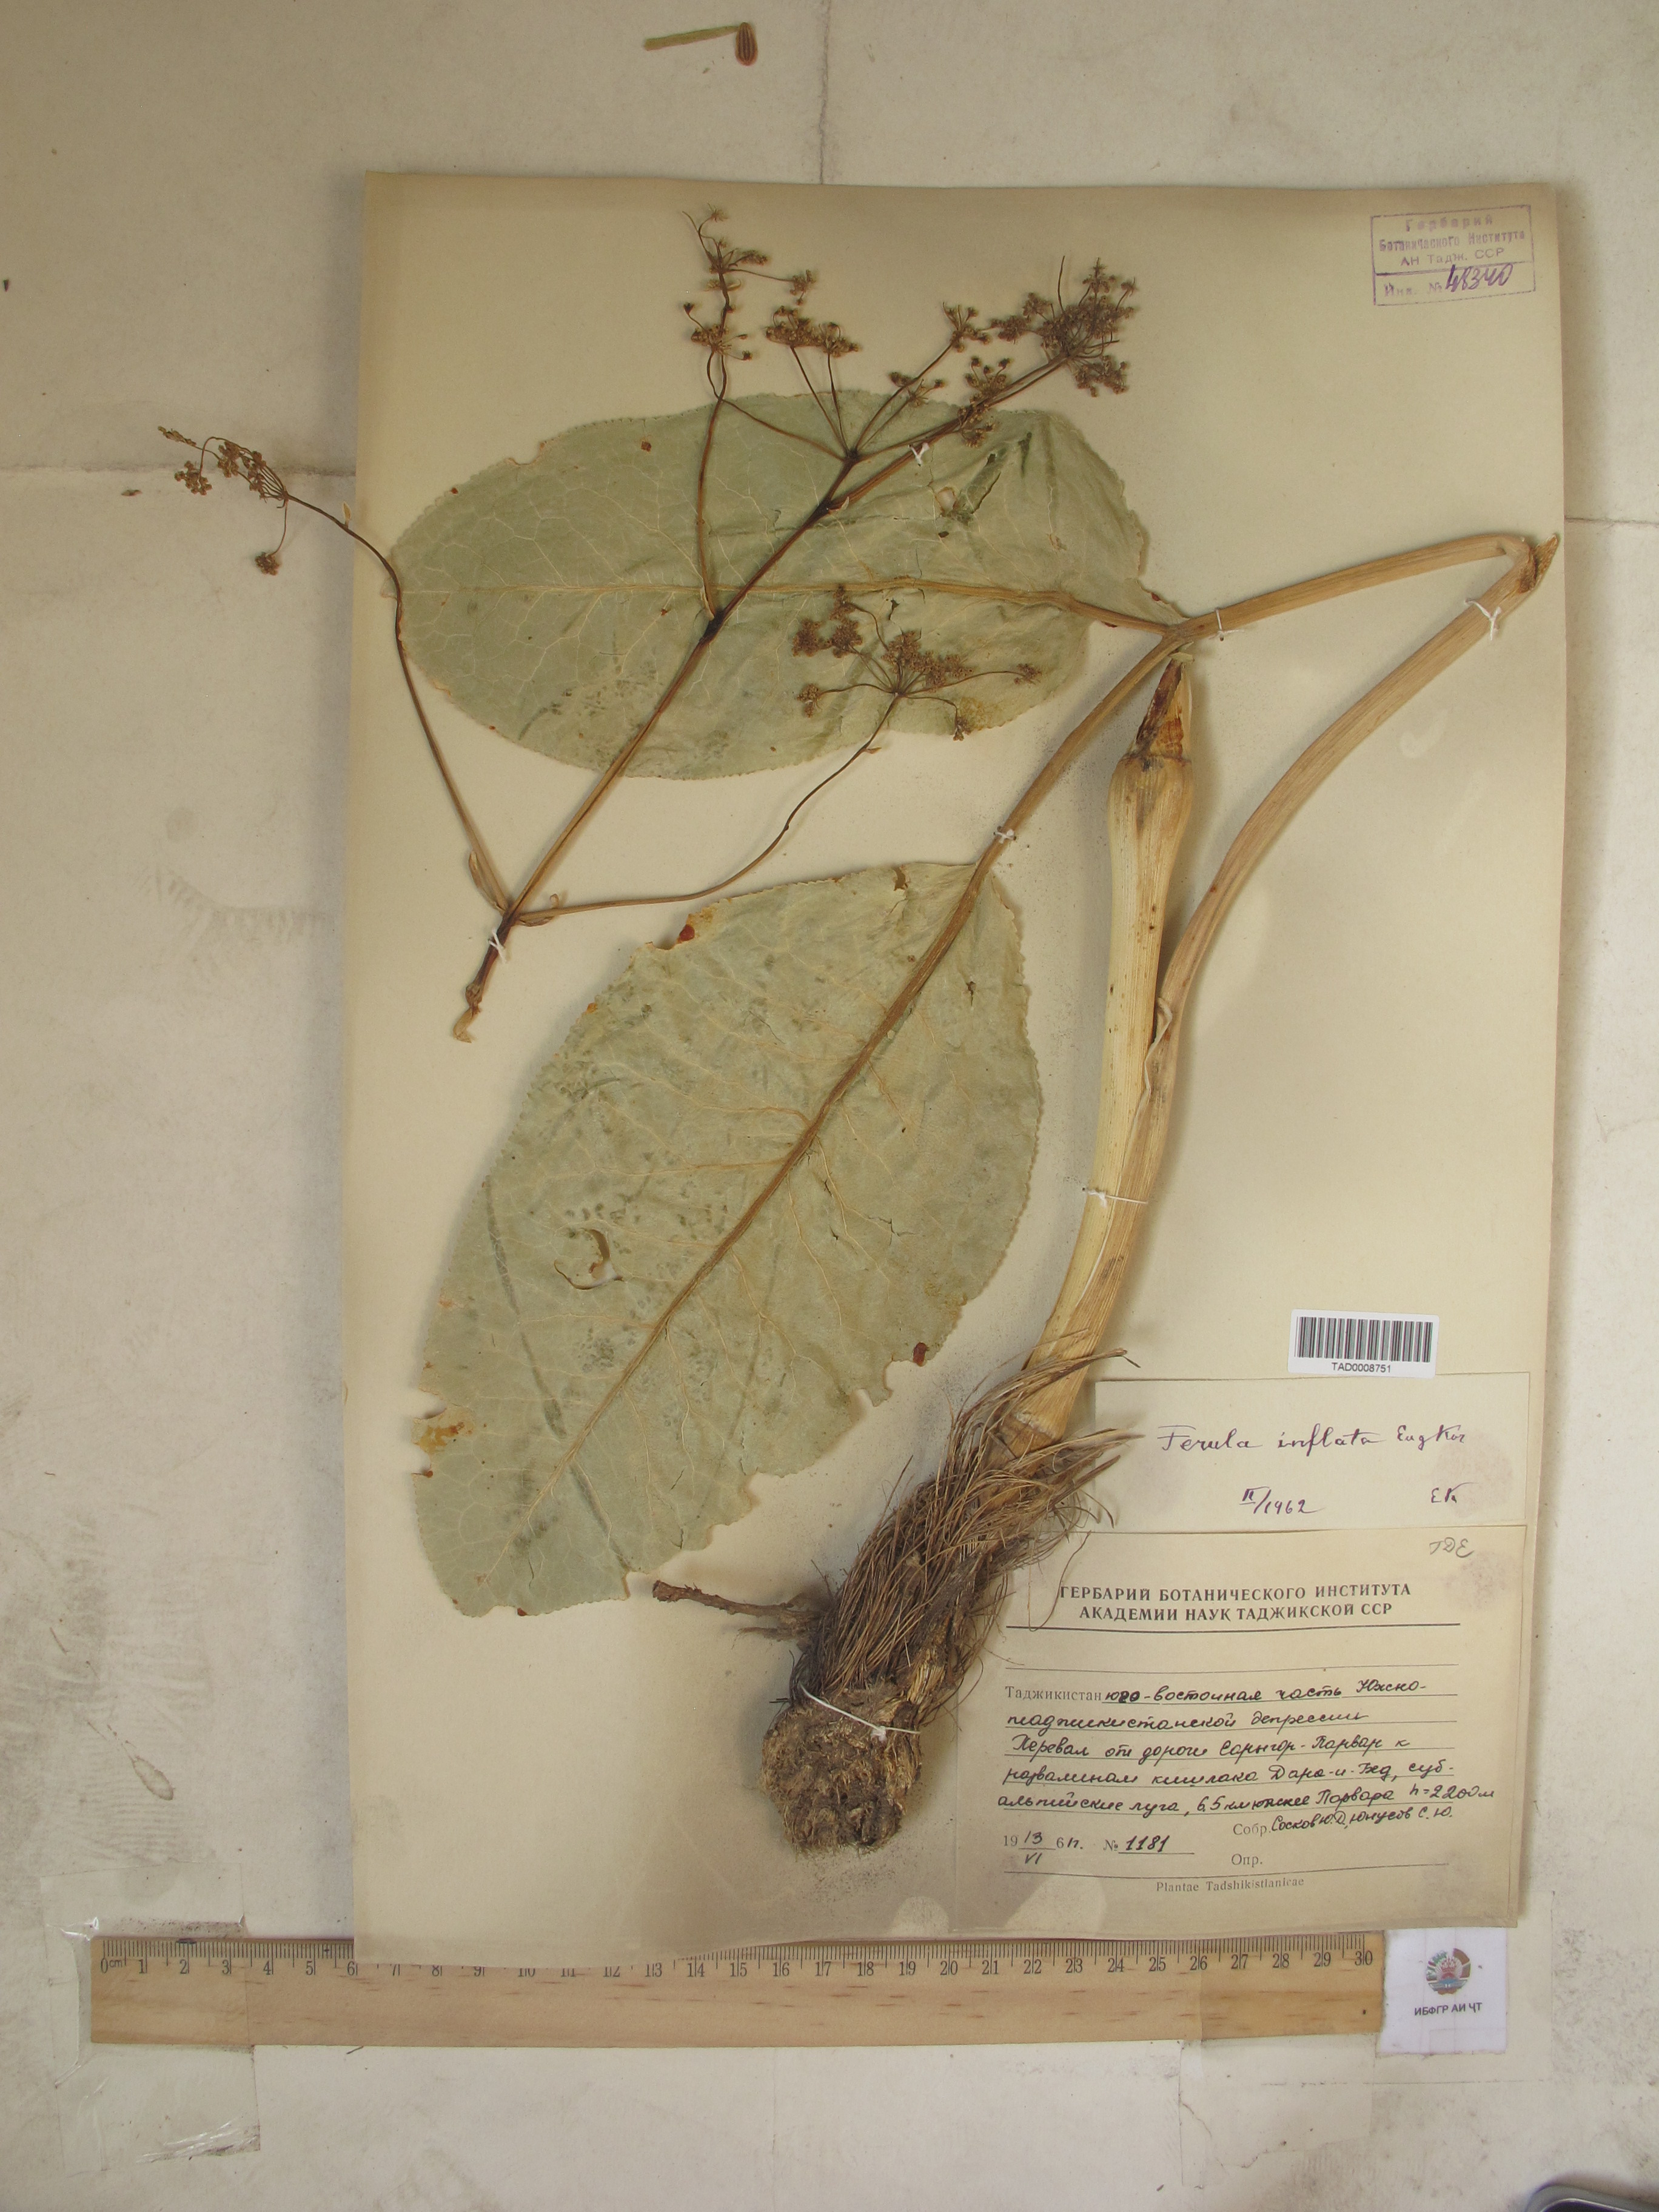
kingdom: Plantae
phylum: Tracheophyta
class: Magnoliopsida
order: Apiales
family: Apiaceae
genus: Ferula
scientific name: Ferula gigantea
